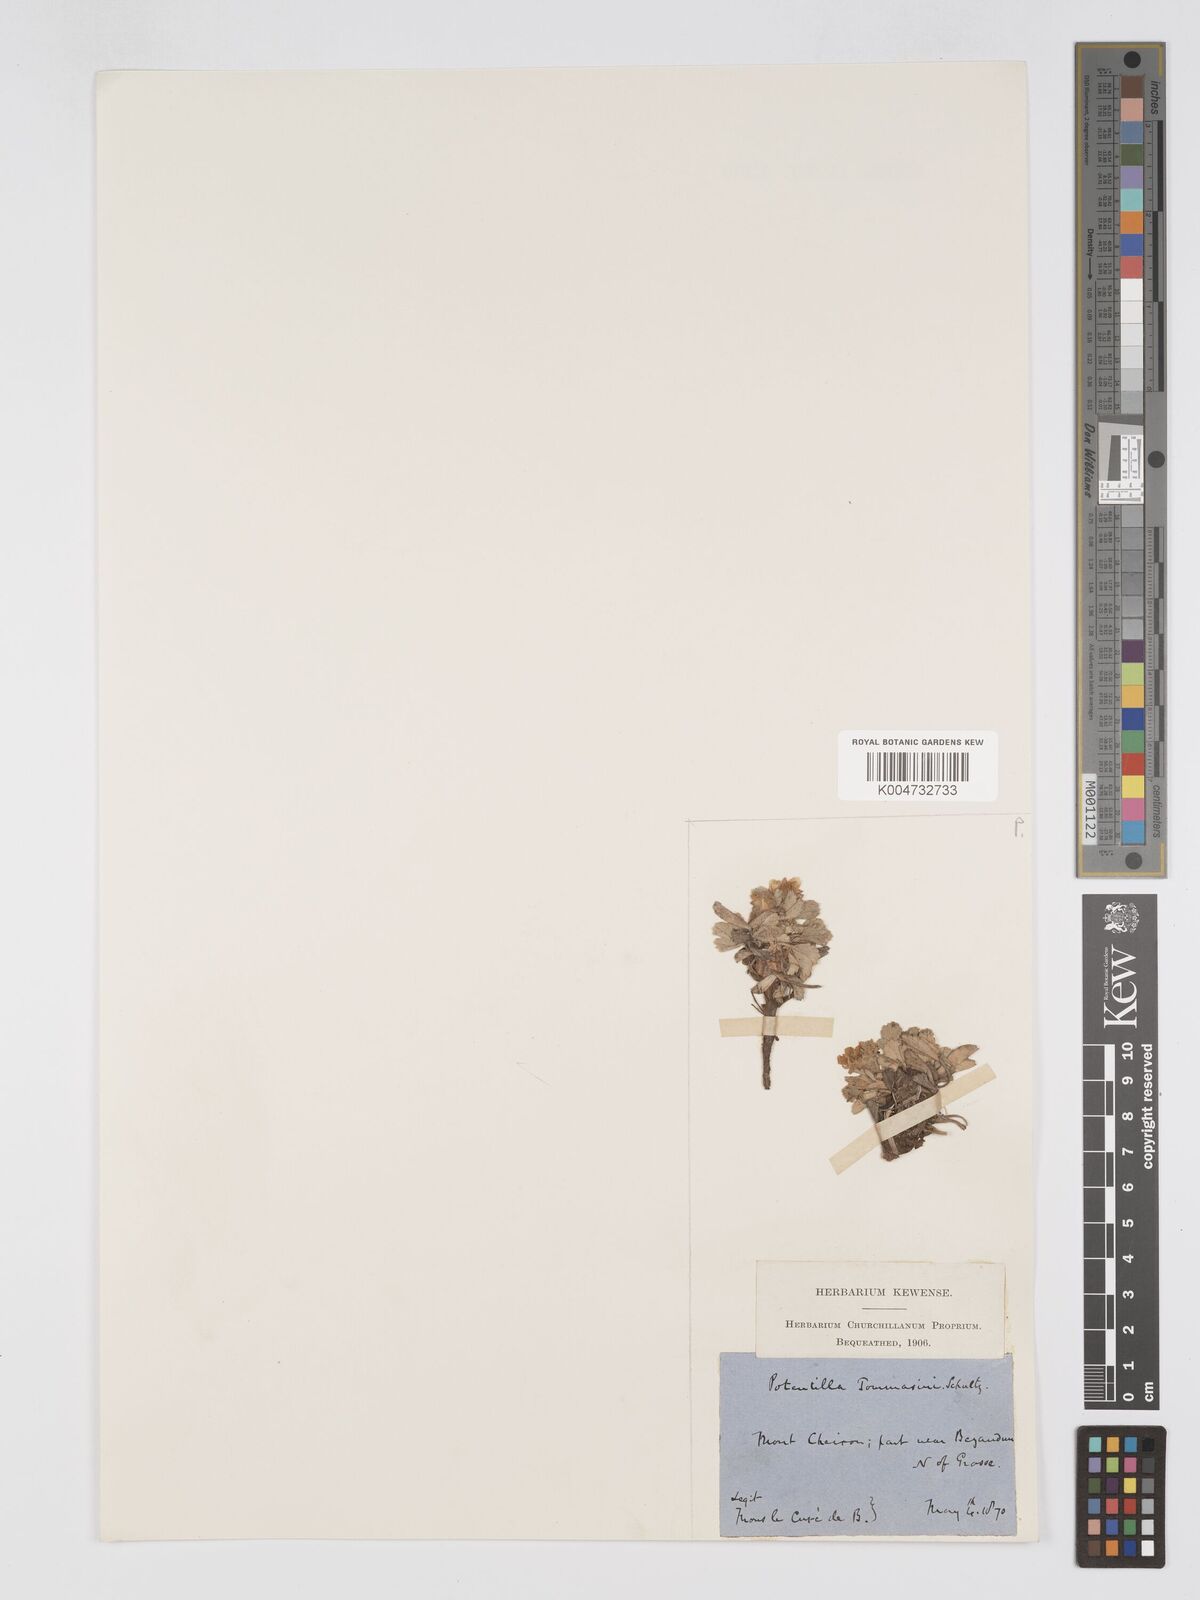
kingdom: Plantae
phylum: Tracheophyta
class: Magnoliopsida
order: Rosales
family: Rosaceae
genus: Potentilla
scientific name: Potentilla cinerea
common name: Ashy cinquefoil
